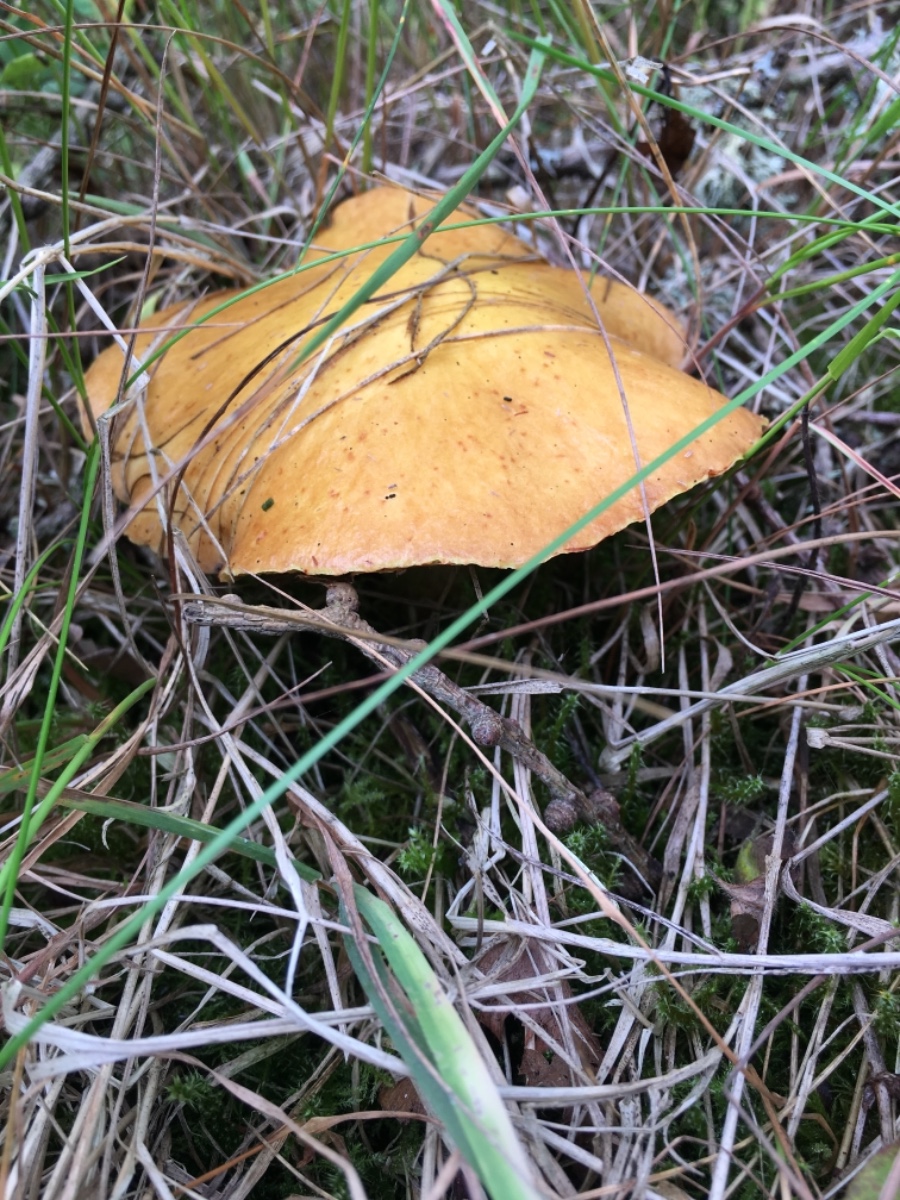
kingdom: Fungi
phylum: Basidiomycota
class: Agaricomycetes
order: Boletales
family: Suillaceae
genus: Suillus
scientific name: Suillus grevillei
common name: lærke-slimrørhat
